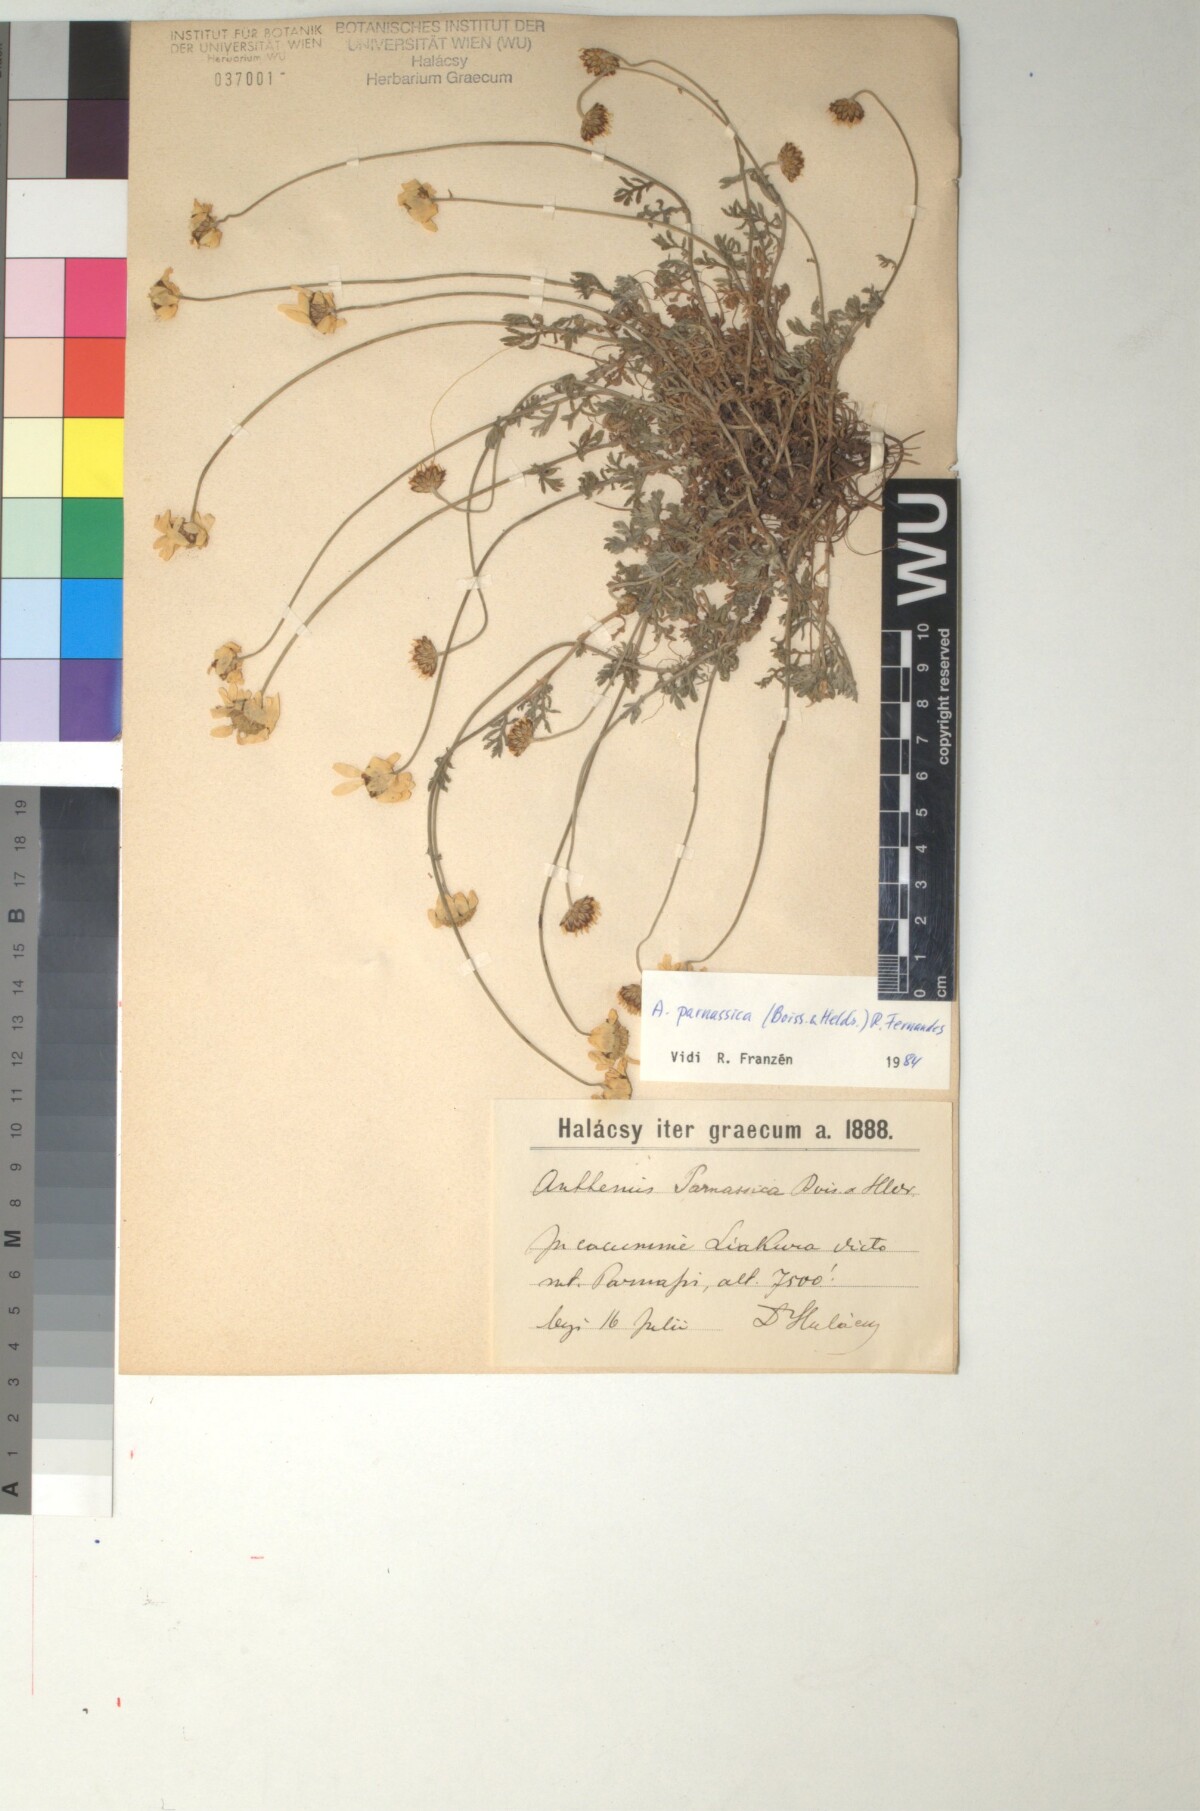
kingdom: Plantae
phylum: Tracheophyta
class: Magnoliopsida
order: Asterales
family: Asteraceae
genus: Cota
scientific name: Cota tinctoria
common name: Golden chamomile
